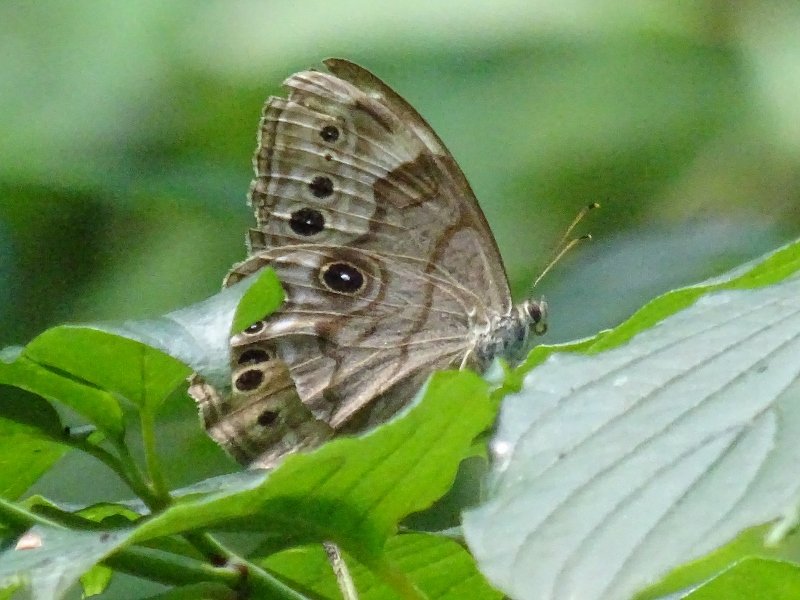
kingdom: Animalia
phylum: Arthropoda
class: Insecta
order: Lepidoptera
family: Nymphalidae
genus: Lethe
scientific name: Lethe anthedon
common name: Northern Pearly-Eye
